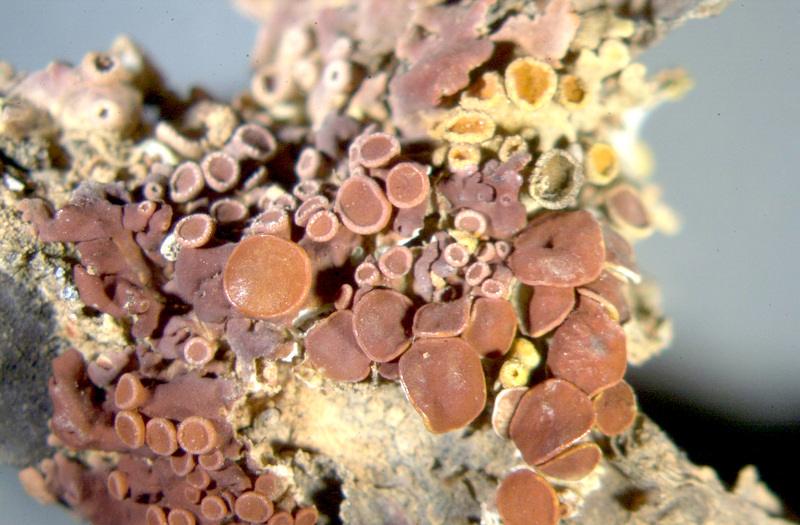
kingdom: Fungi
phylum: Ascomycota
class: Lecanoromycetes
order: Teloschistales
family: Teloschistaceae
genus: Xanthoria
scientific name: Xanthoria
